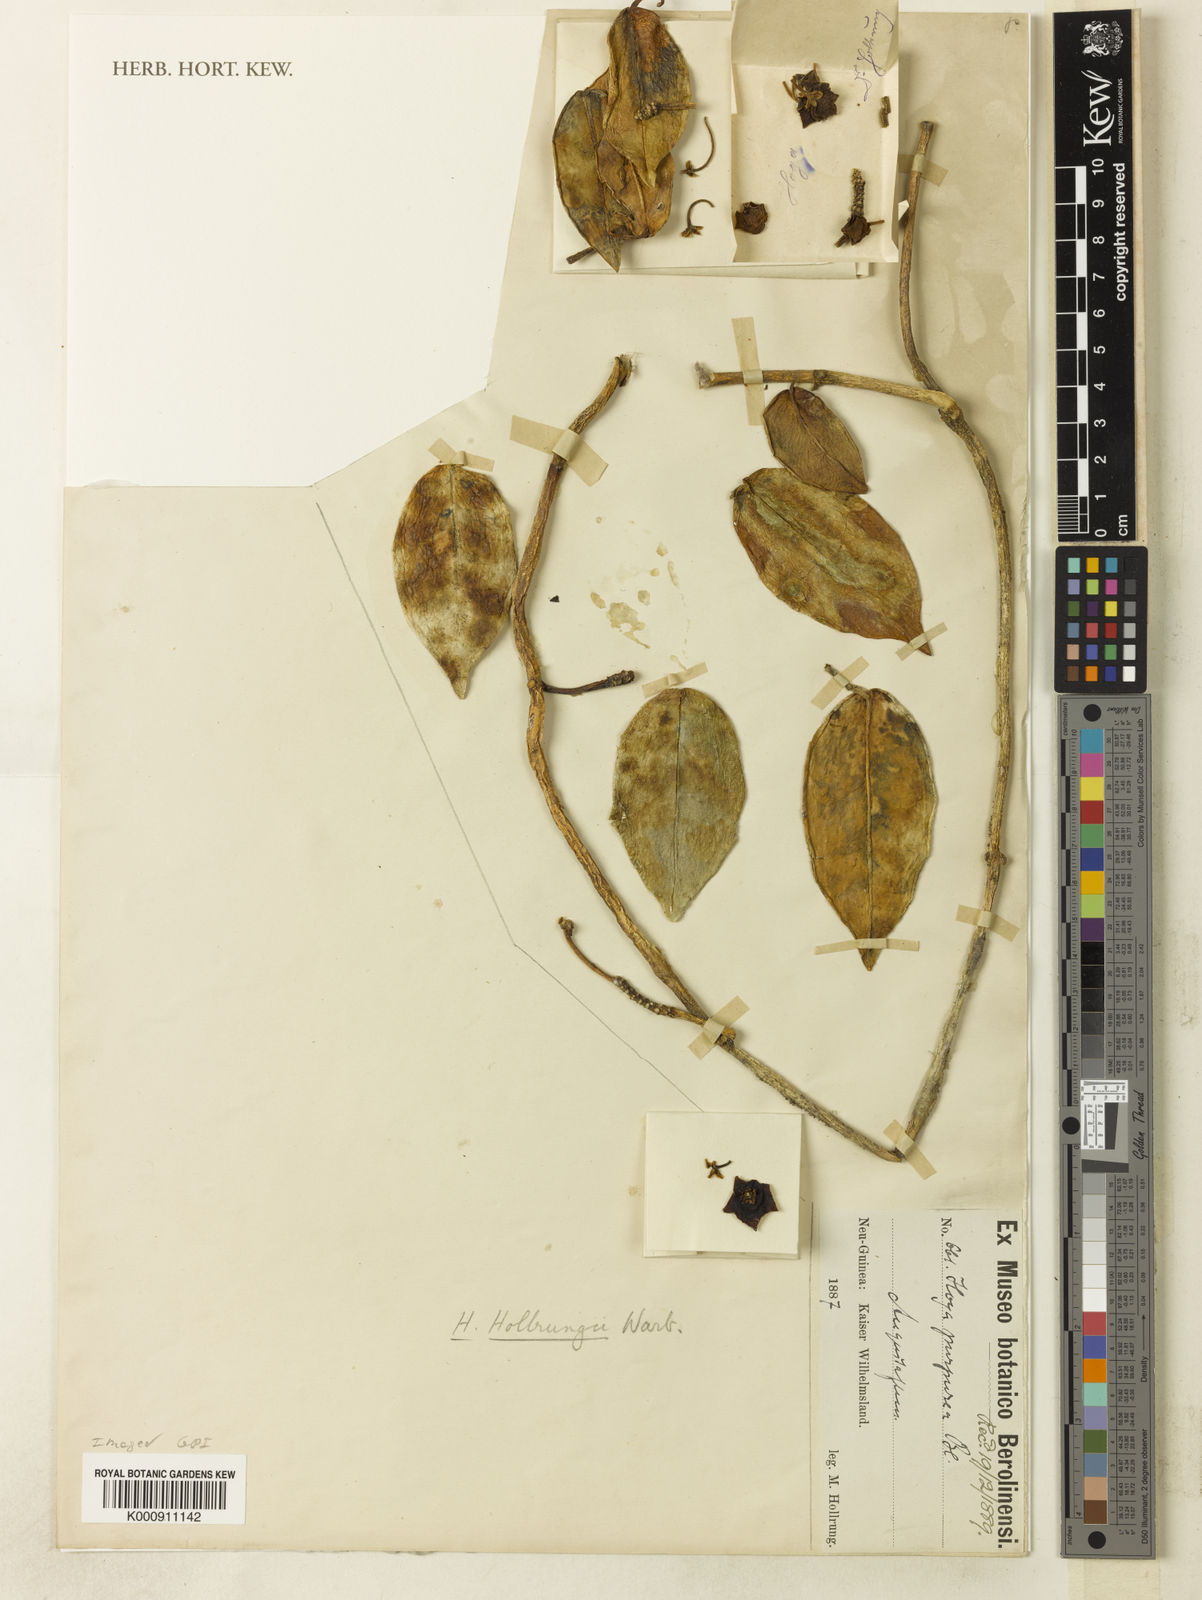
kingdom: Plantae
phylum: Tracheophyta
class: Magnoliopsida
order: Gentianales
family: Apocynaceae
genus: Hoya
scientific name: Hoya sussuela
